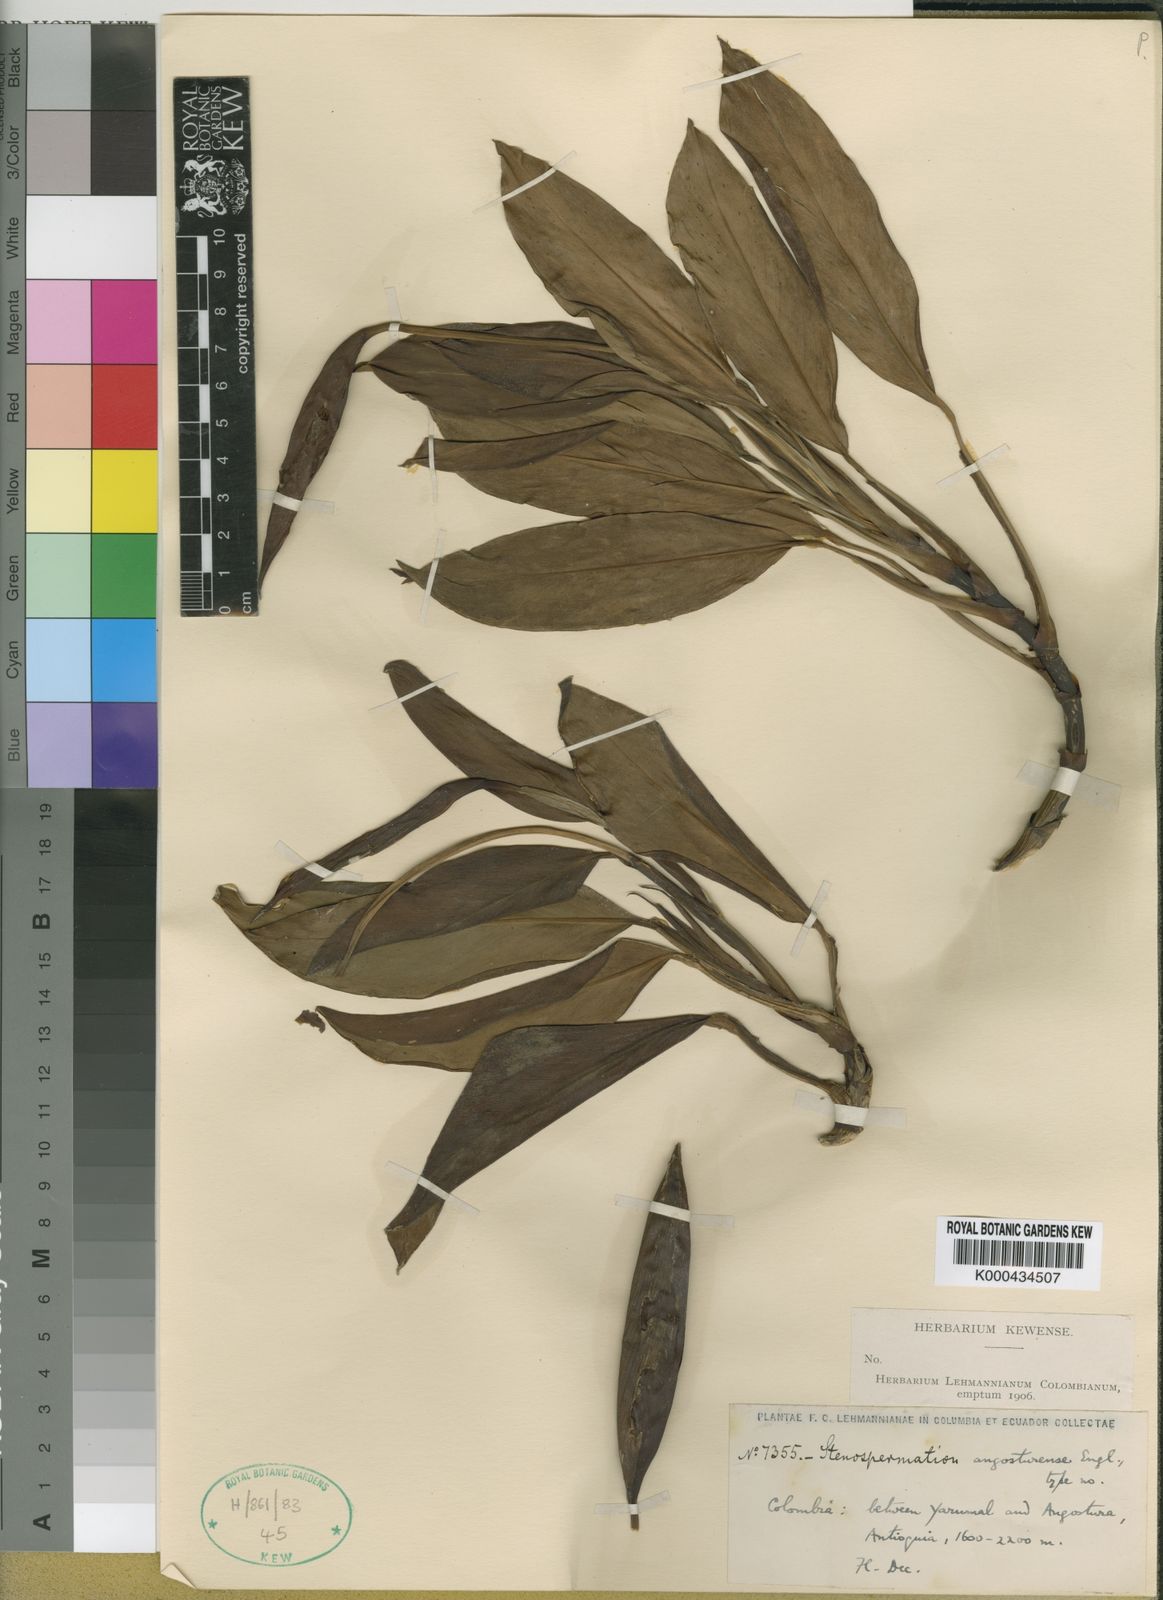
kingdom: Plantae
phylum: Tracheophyta
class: Liliopsida
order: Alismatales
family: Araceae
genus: Stenospermation
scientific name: Stenospermation angosturense
